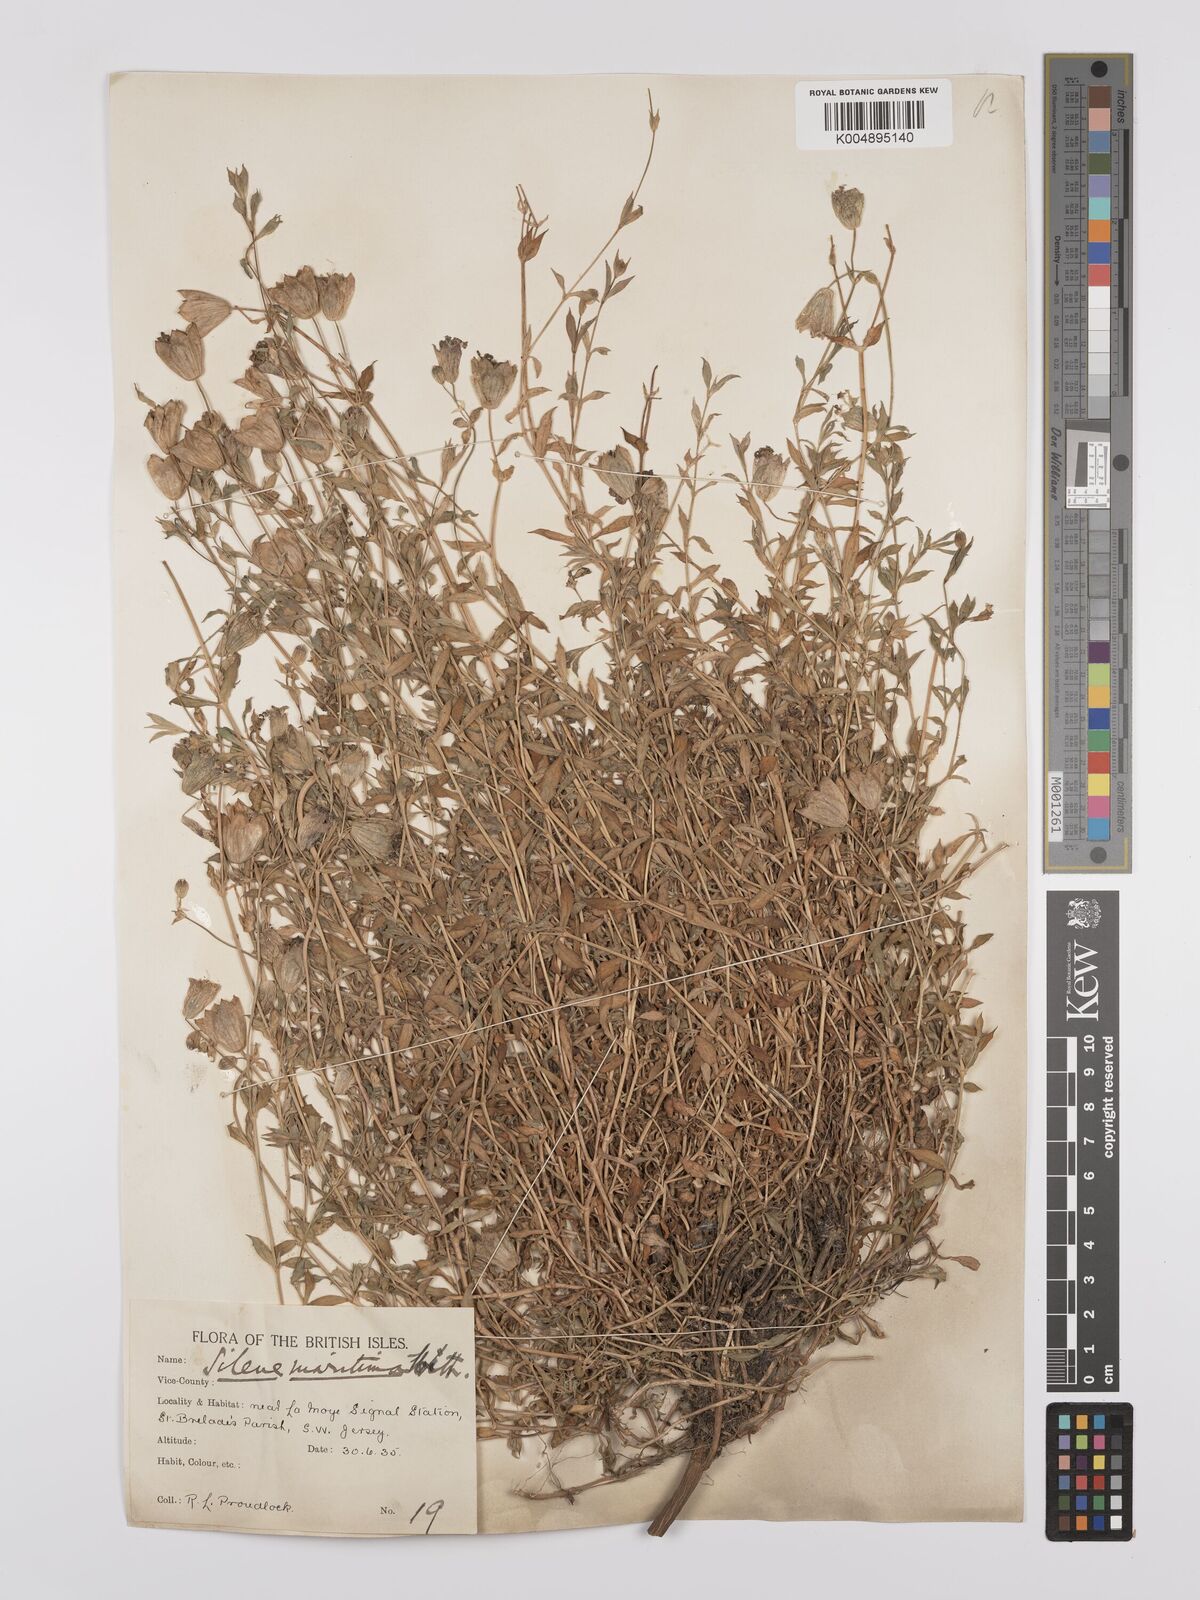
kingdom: Plantae
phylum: Tracheophyta
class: Magnoliopsida
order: Caryophyllales
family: Caryophyllaceae
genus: Silene
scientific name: Silene uniflora
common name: Sea campion
